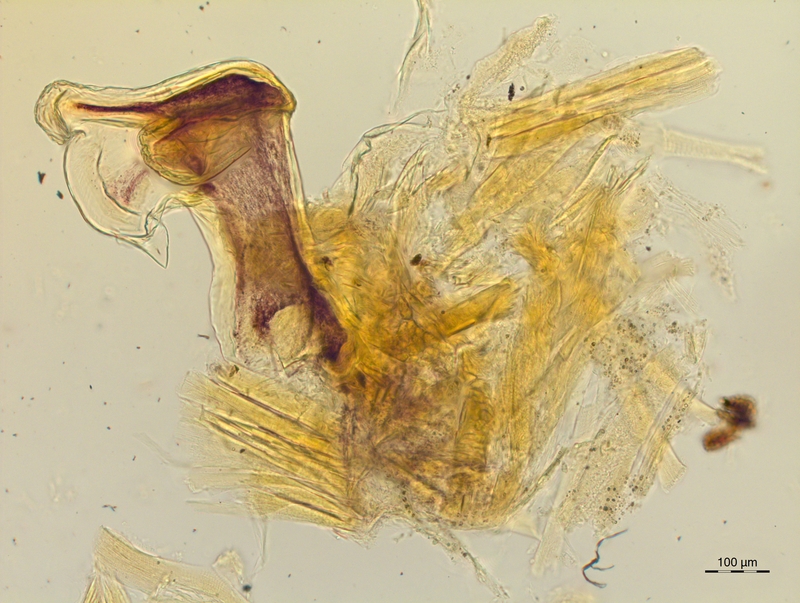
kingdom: Animalia
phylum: Arthropoda
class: Diplopoda
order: Chordeumatida
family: Craspedosomatidae
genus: Craspedosoma
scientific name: Craspedosoma slavum
